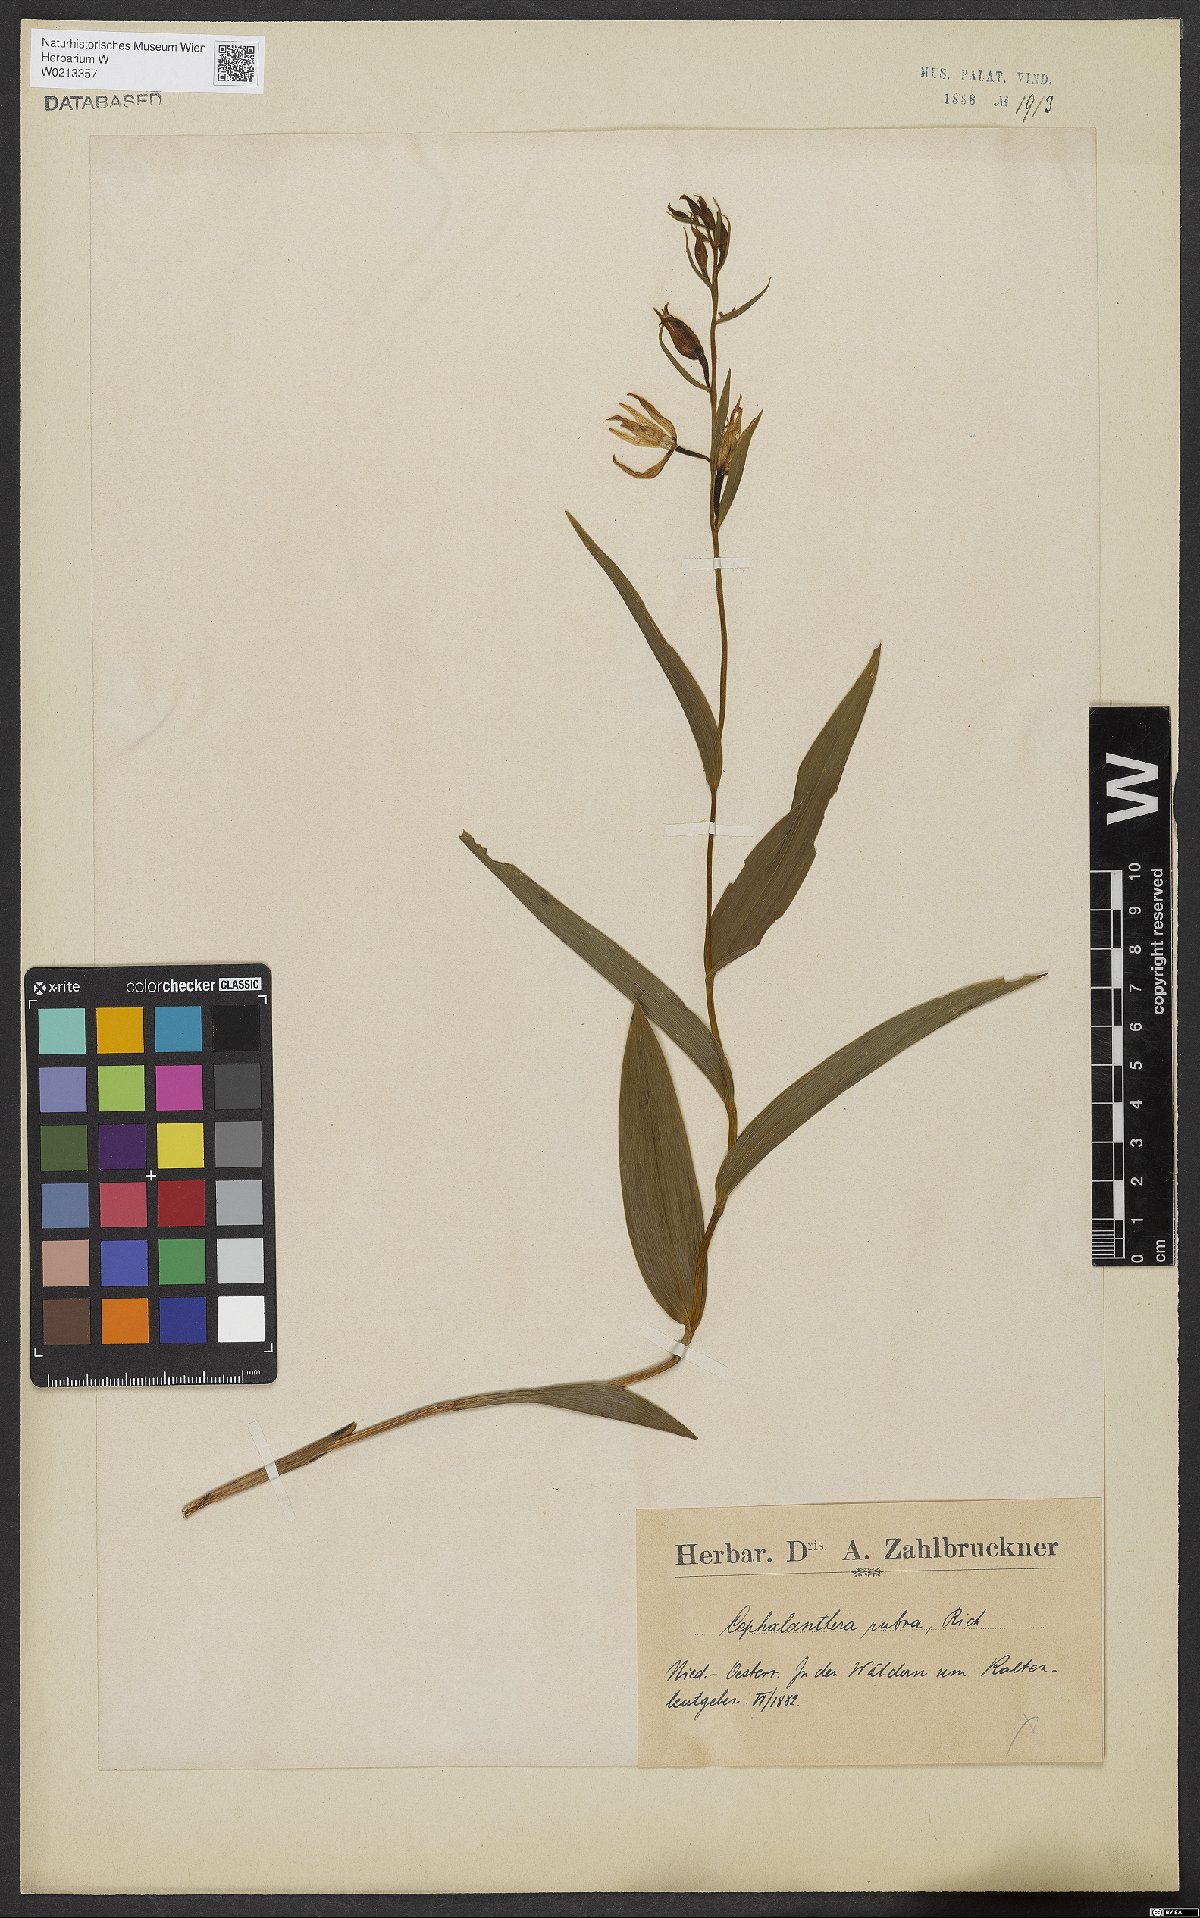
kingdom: Plantae
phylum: Tracheophyta
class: Liliopsida
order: Asparagales
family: Orchidaceae
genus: Cephalanthera
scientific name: Cephalanthera rubra
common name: Red helleborine
